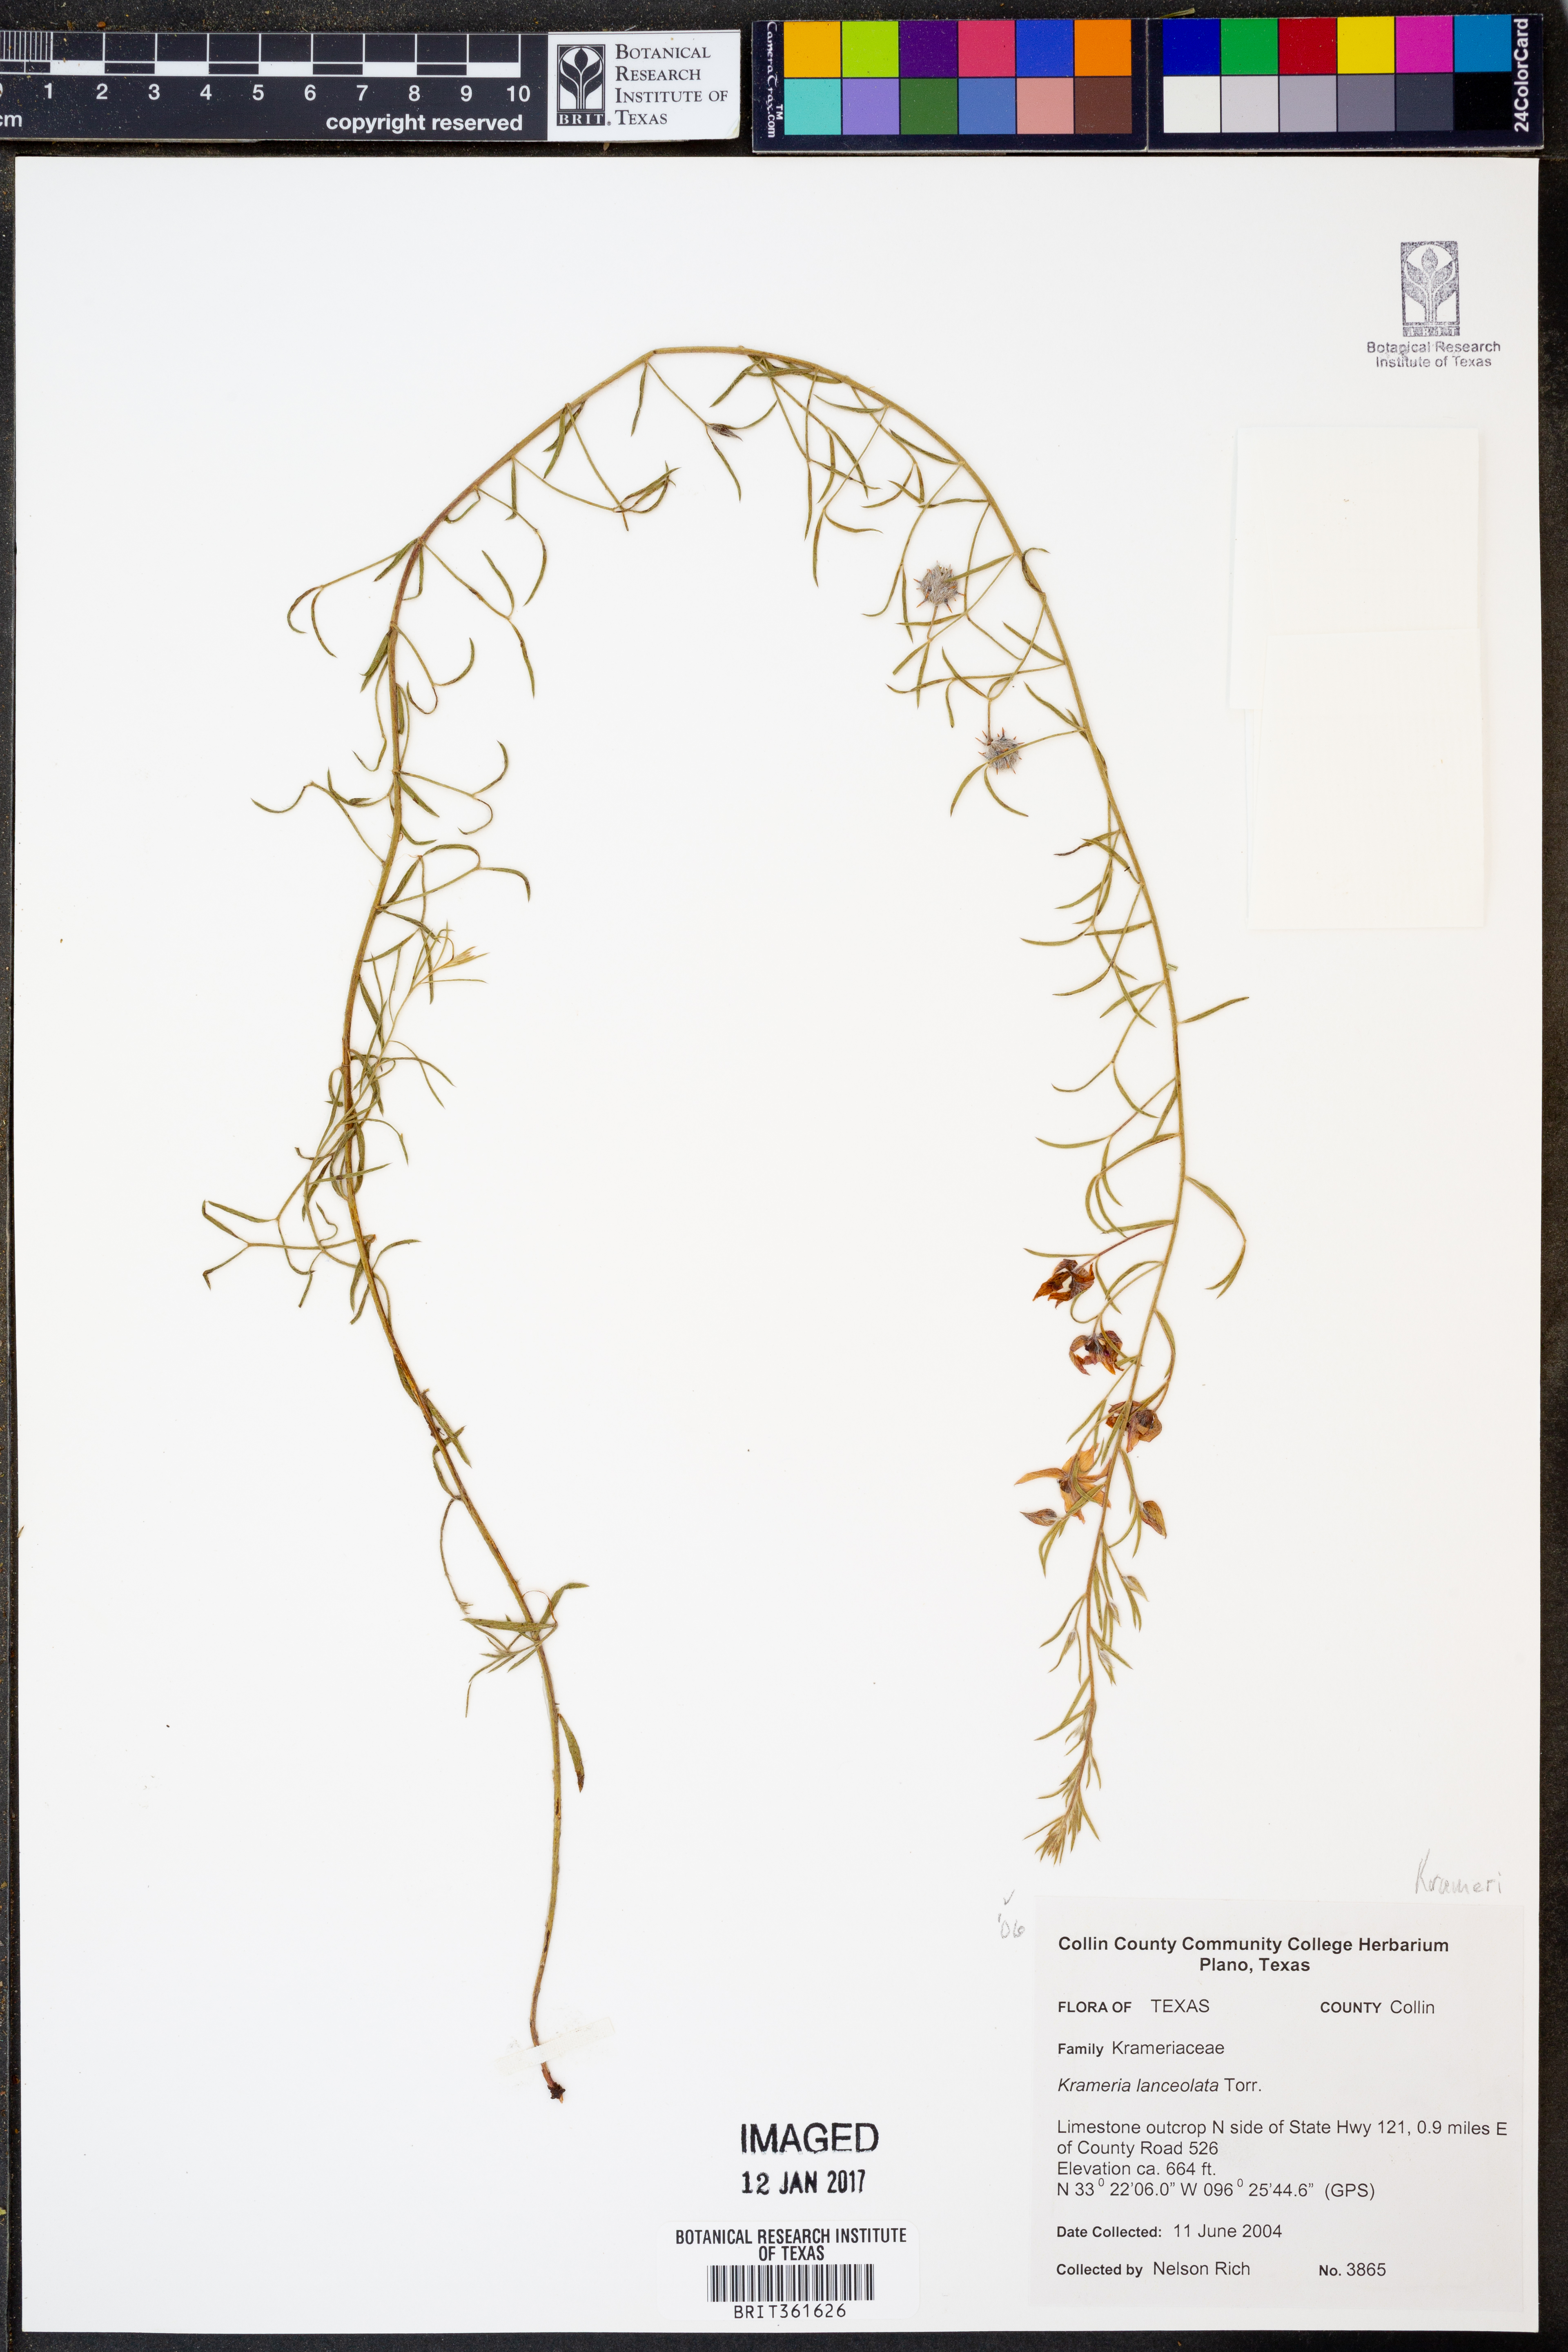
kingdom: Plantae
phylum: Tracheophyta
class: Magnoliopsida
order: Zygophyllales
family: Krameriaceae
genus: Krameria
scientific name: Krameria lanceolata
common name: Ratany
